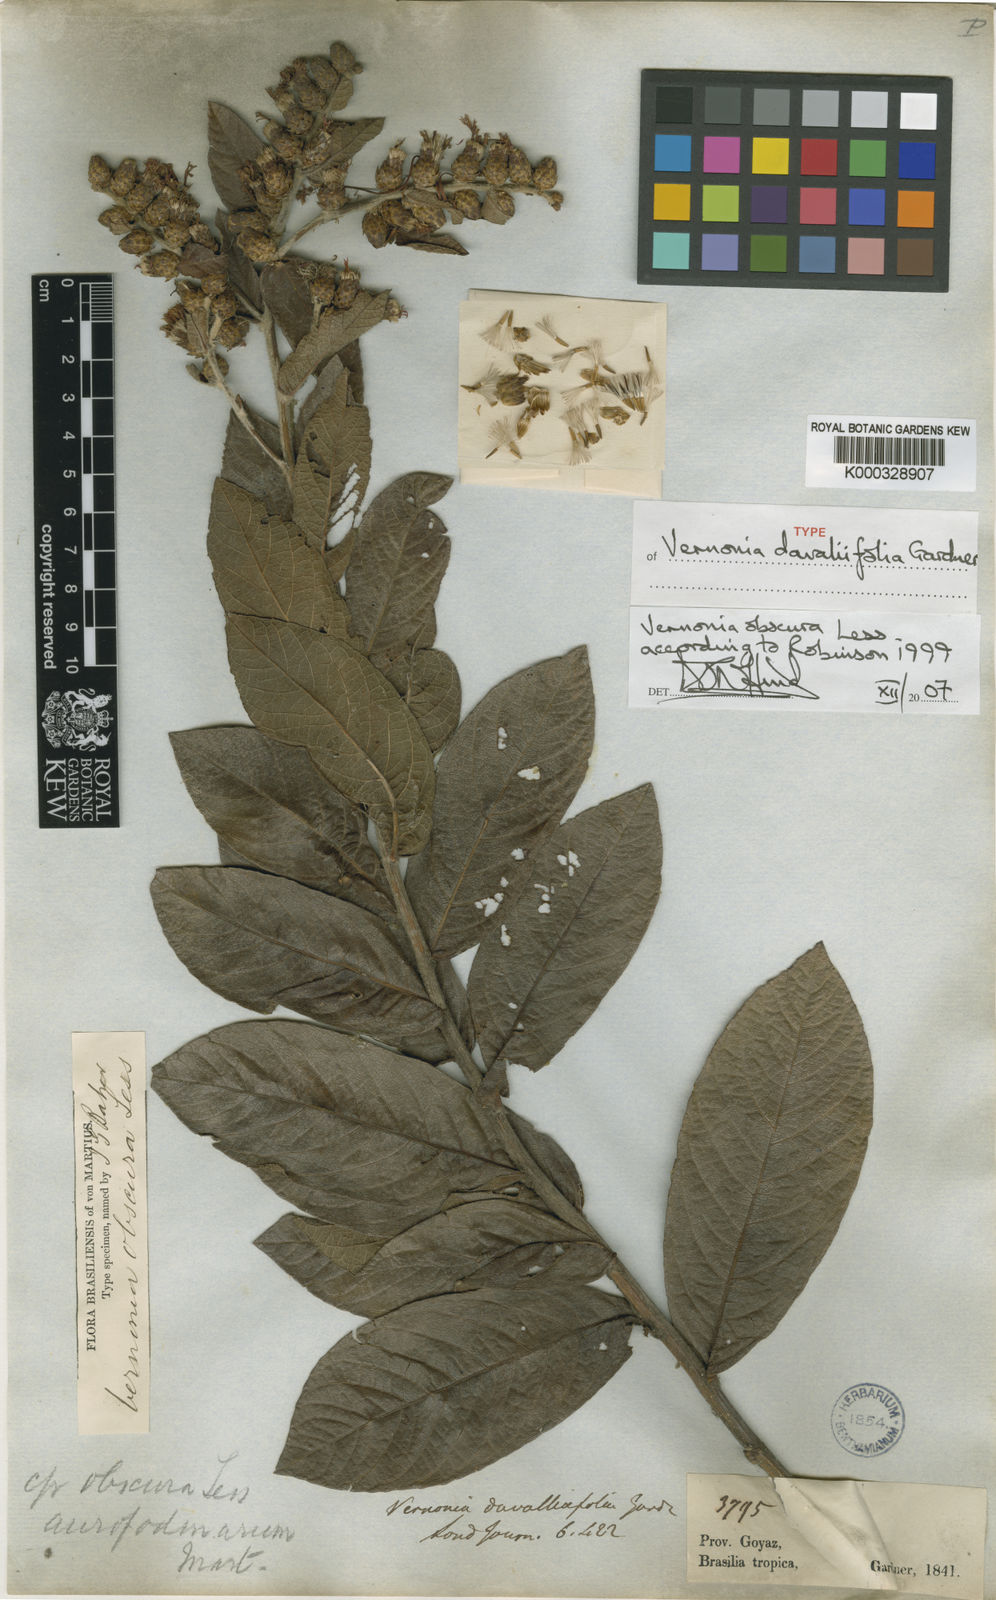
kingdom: Plantae
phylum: Tracheophyta
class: Magnoliopsida
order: Asterales
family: Asteraceae
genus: Lessingianthus
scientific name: Lessingianthus obscurus
